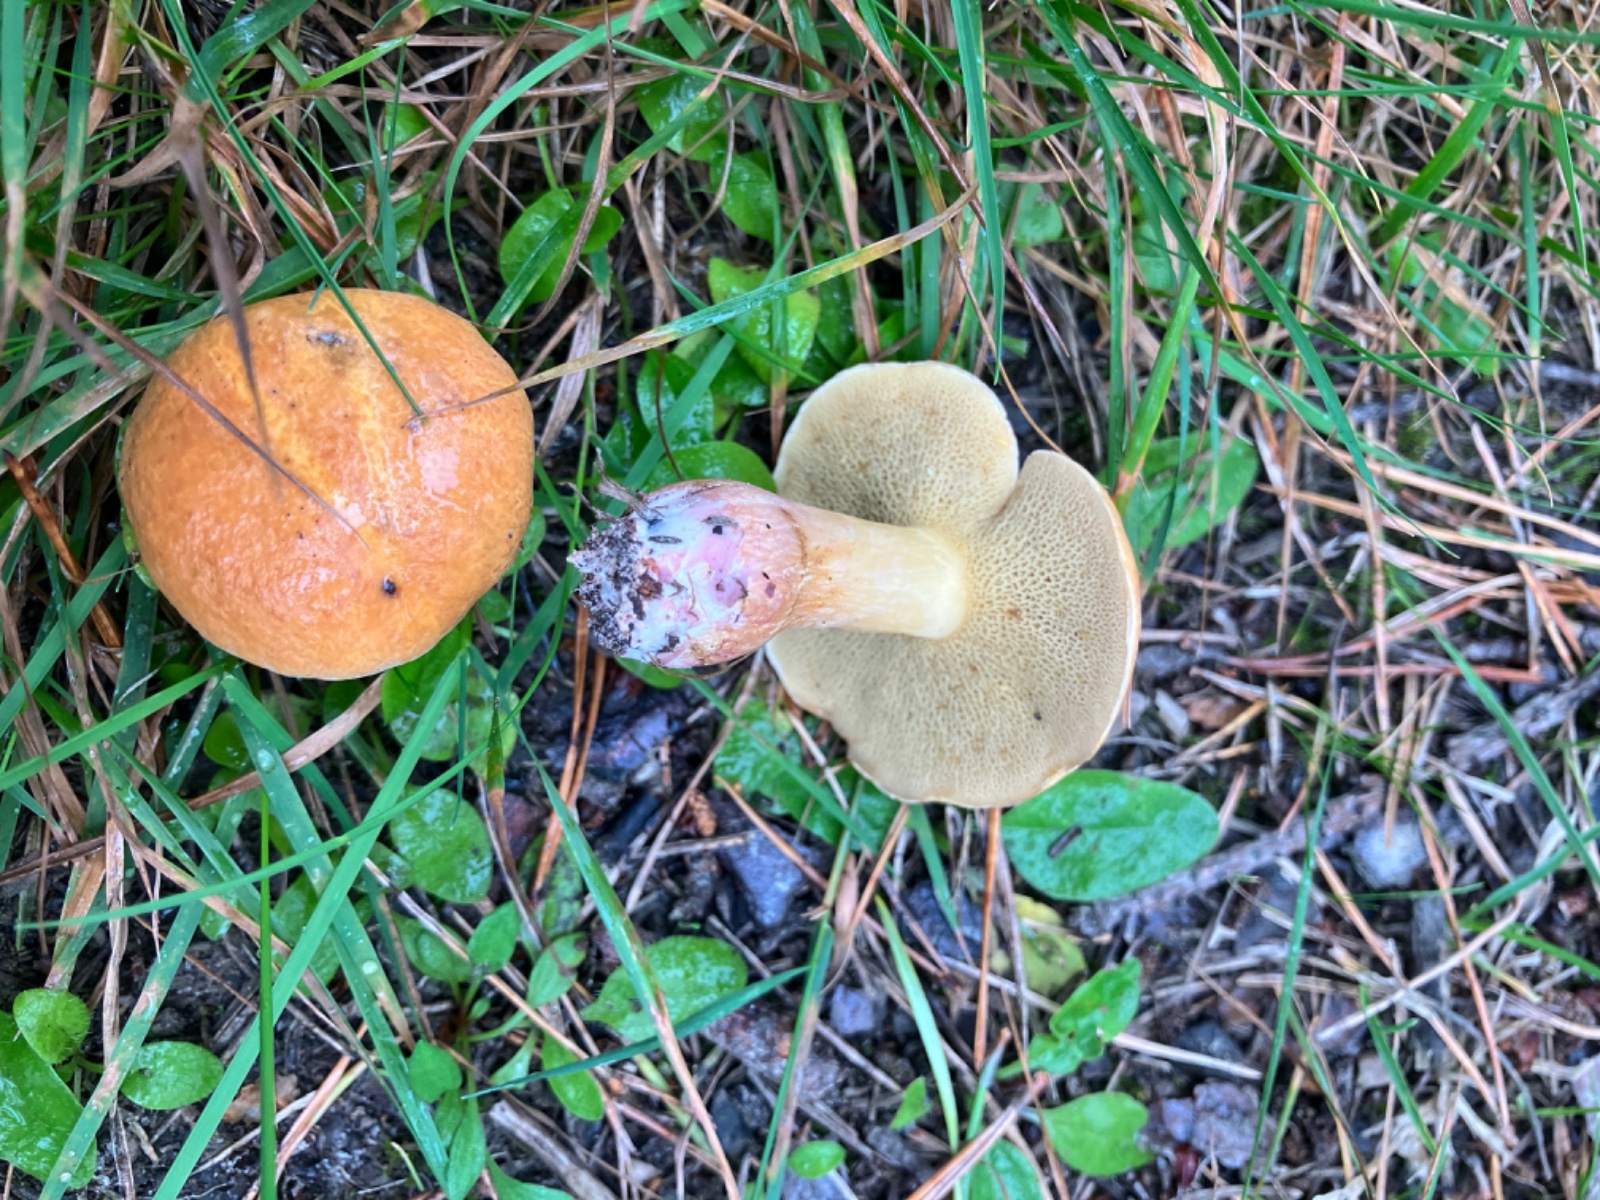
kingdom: Fungi
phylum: Basidiomycota
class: Agaricomycetes
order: Boletales
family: Suillaceae
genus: Suillus
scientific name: Suillus bovinus
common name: grovporet slimrørhat
